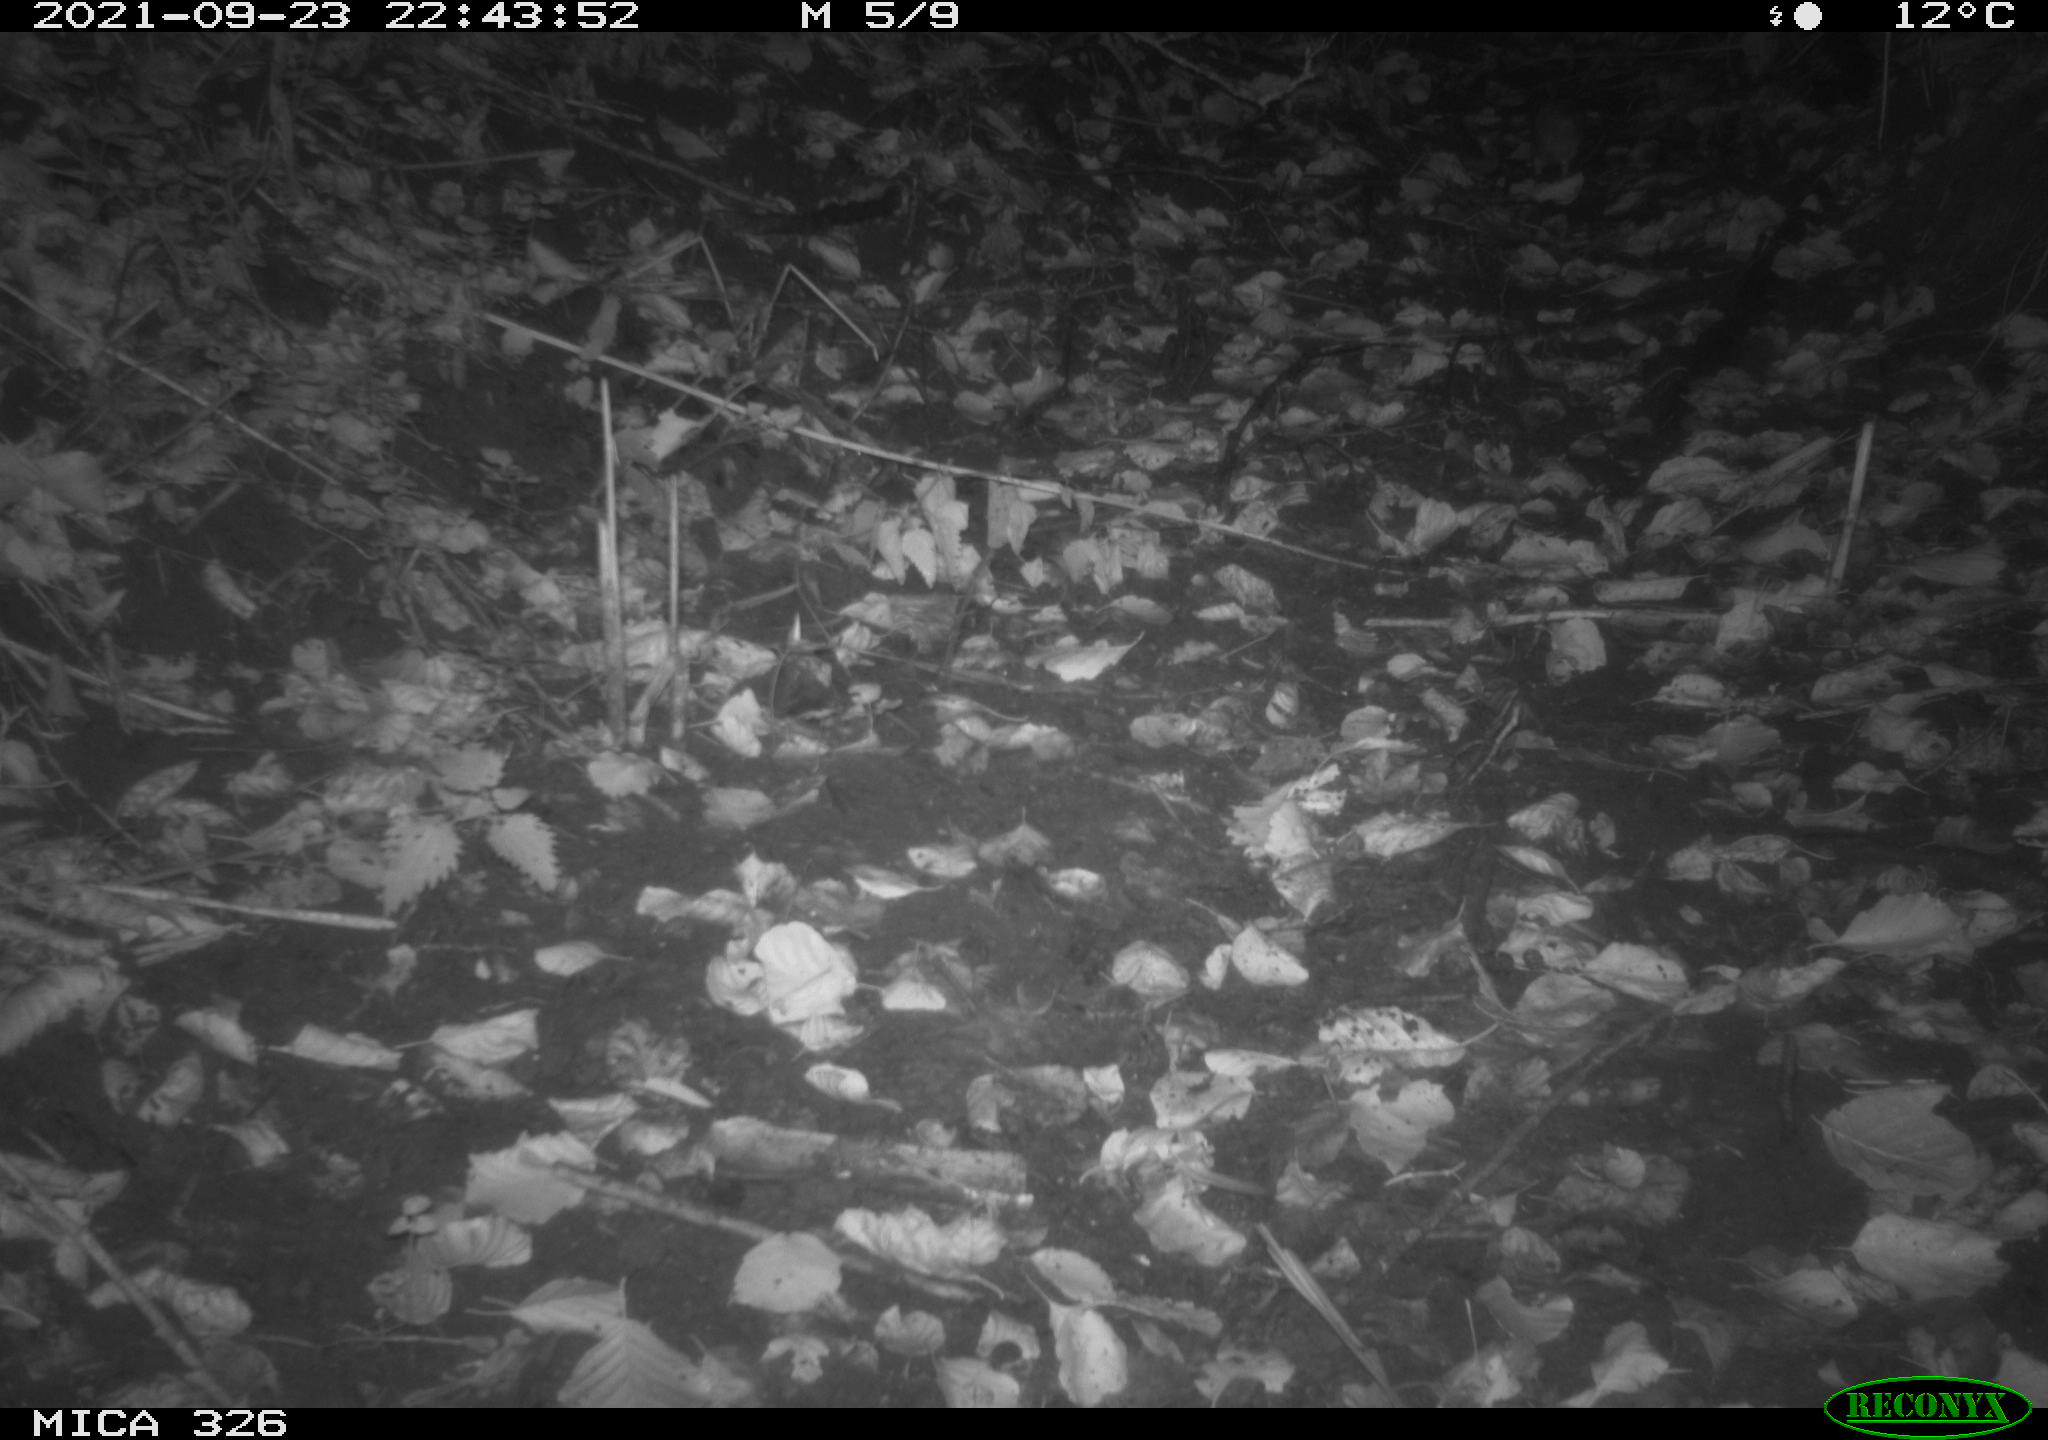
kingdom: Animalia
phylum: Chordata
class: Mammalia
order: Rodentia
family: Muridae
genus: Rattus
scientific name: Rattus norvegicus
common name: Brown rat
